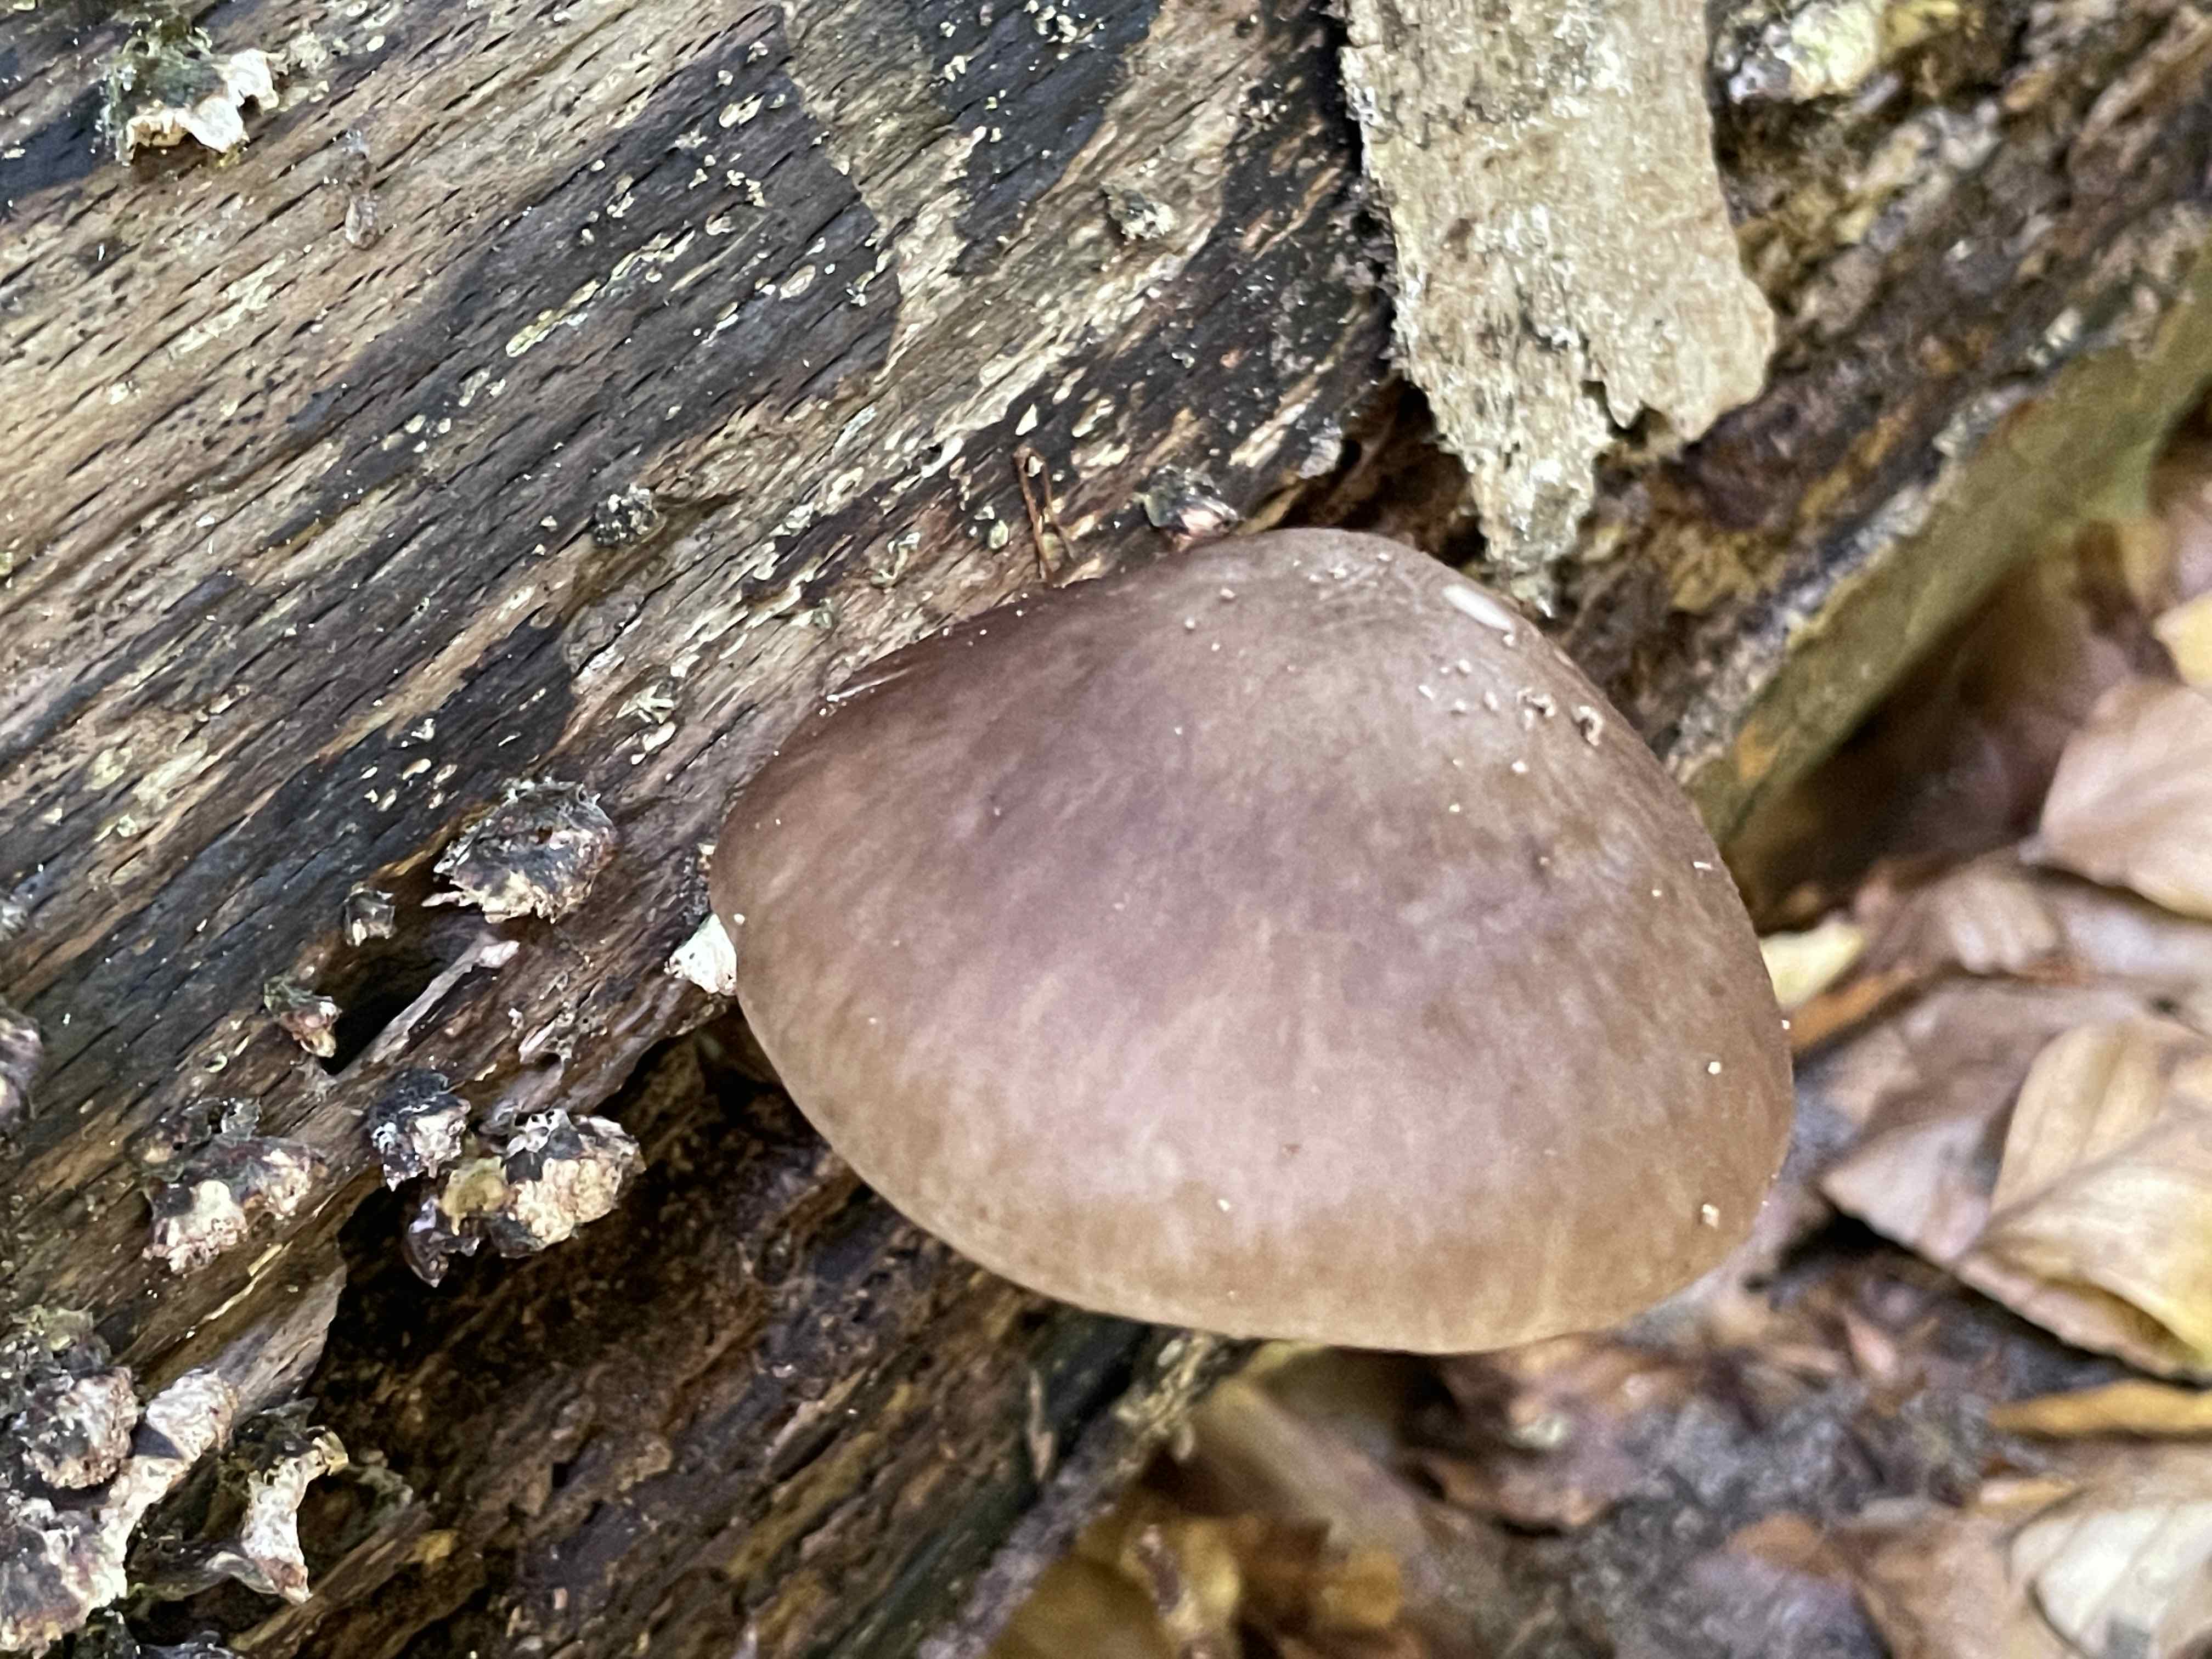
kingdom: Fungi
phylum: Basidiomycota
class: Agaricomycetes
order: Agaricales
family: Pluteaceae
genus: Pluteus
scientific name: Pluteus cervinus
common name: sodfarvet skærmhat
